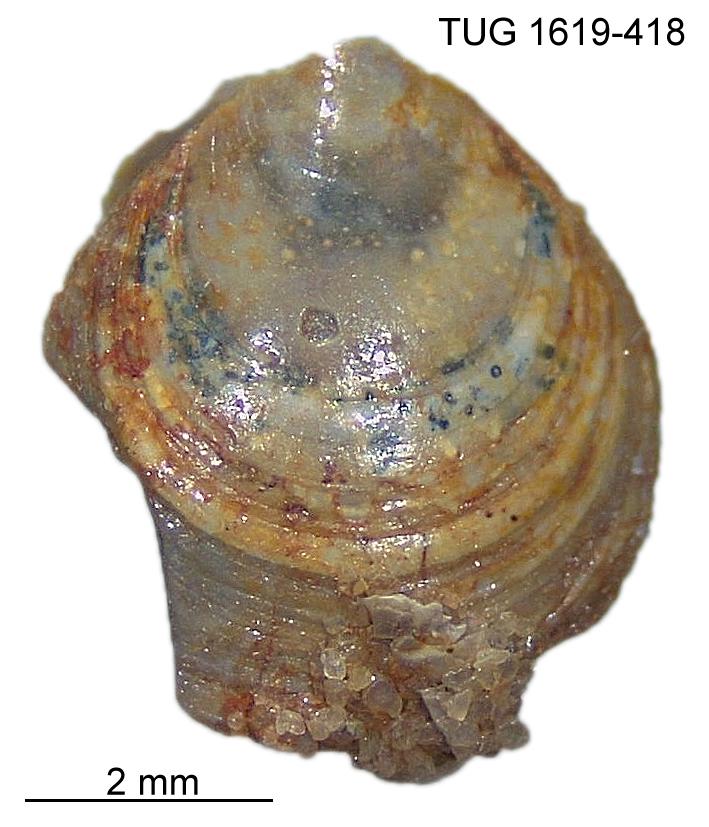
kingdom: Animalia
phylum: Porifera
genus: Ungula
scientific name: Ungula
